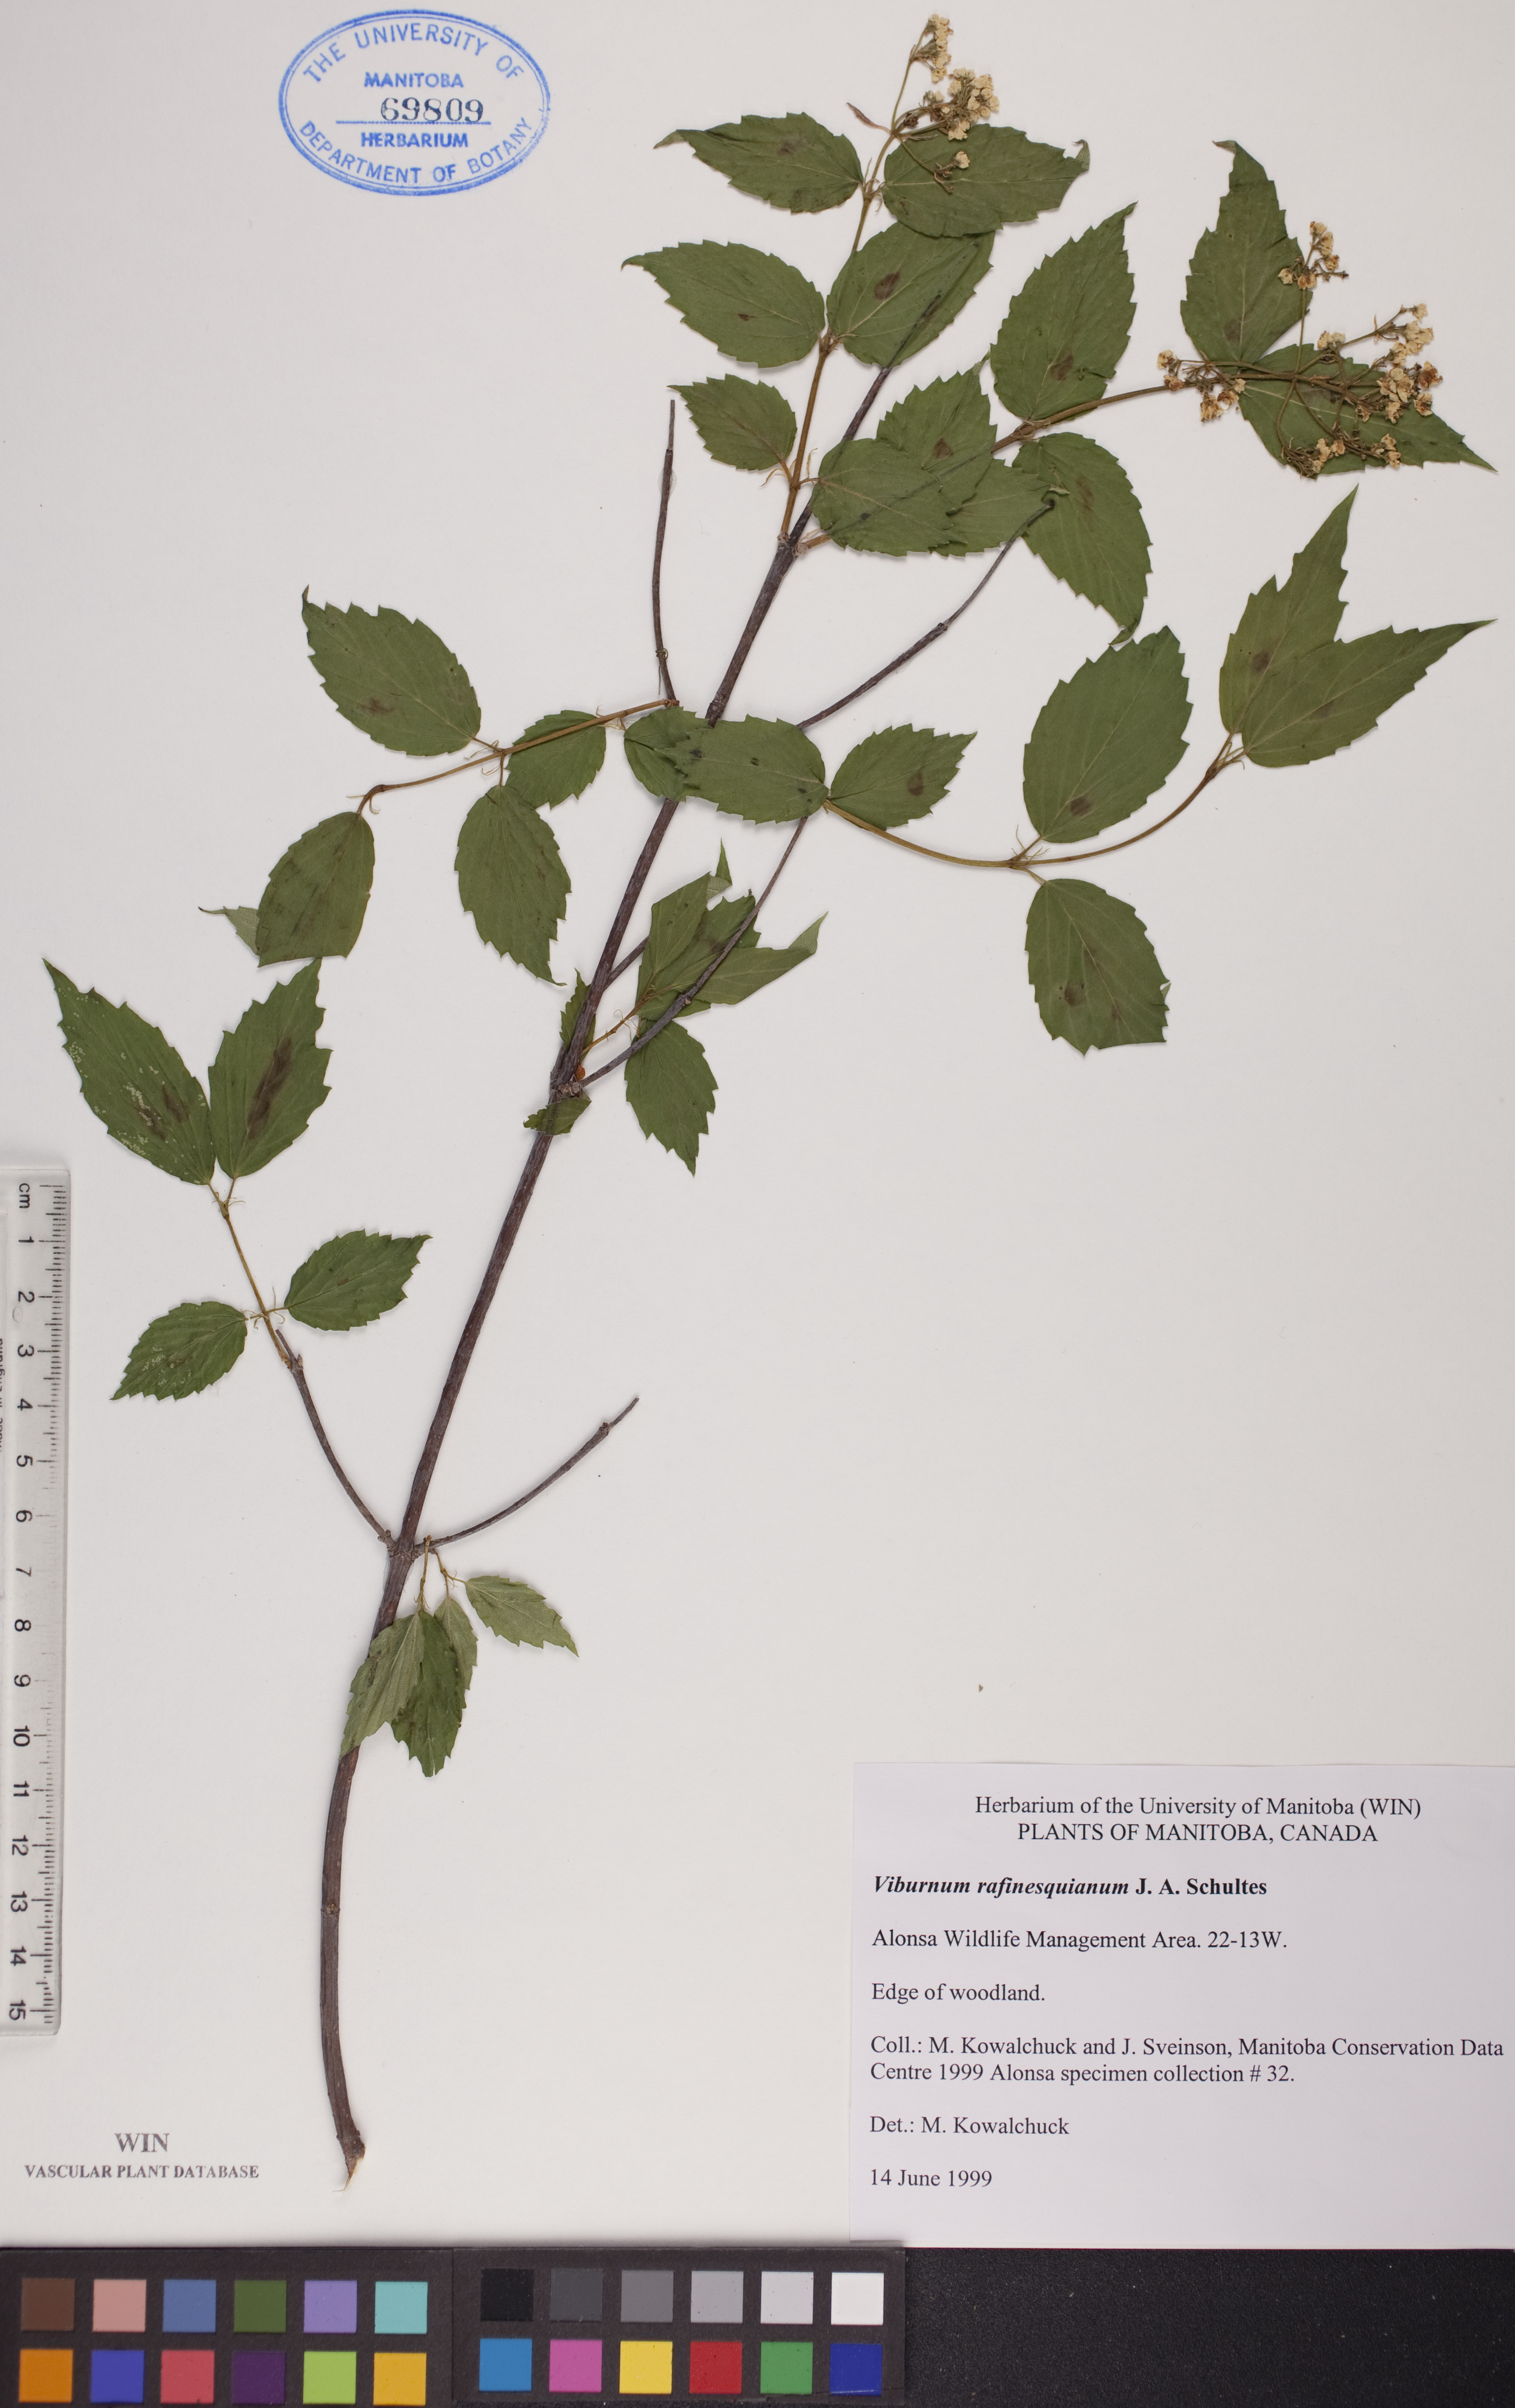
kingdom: Plantae
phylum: Tracheophyta
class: Magnoliopsida
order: Dipsacales
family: Viburnaceae
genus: Viburnum
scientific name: Viburnum rafinesquianum
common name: Downy arrow-wood
